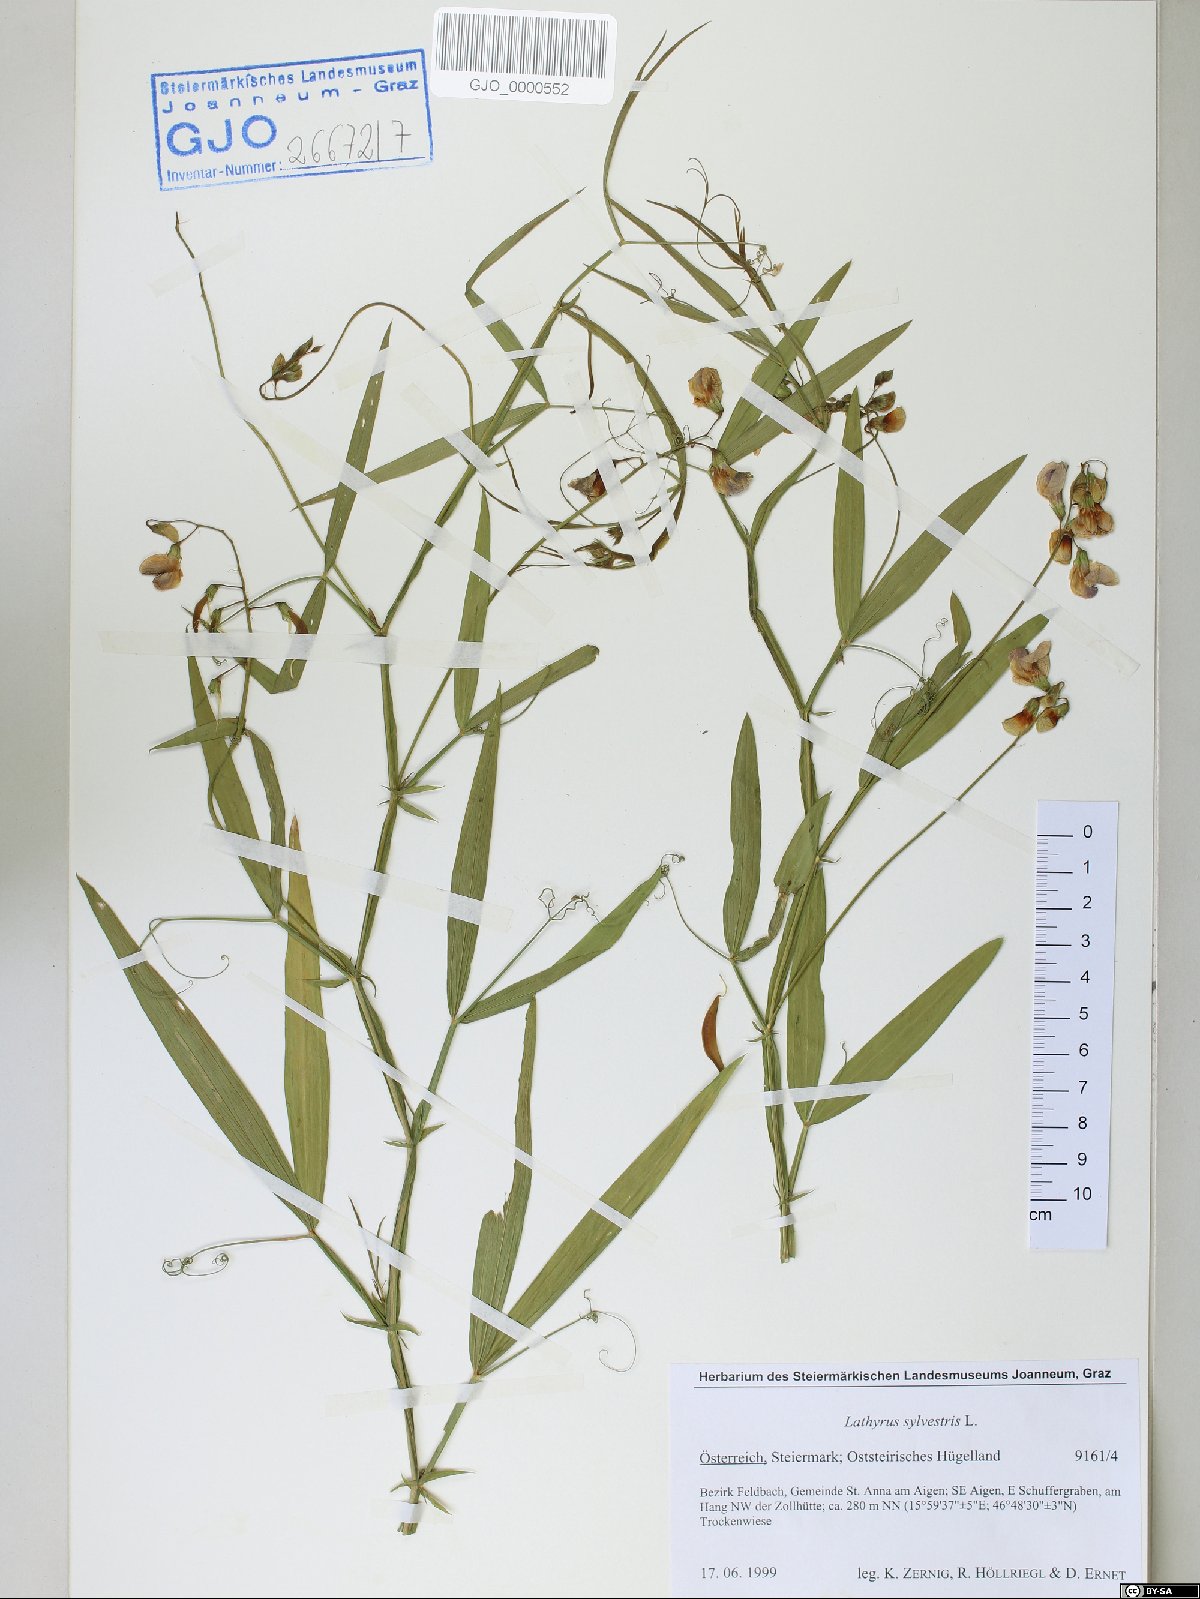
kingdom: Plantae
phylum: Tracheophyta
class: Magnoliopsida
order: Fabales
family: Fabaceae
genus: Lathyrus
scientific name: Lathyrus sylvestris
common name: Flat pea
